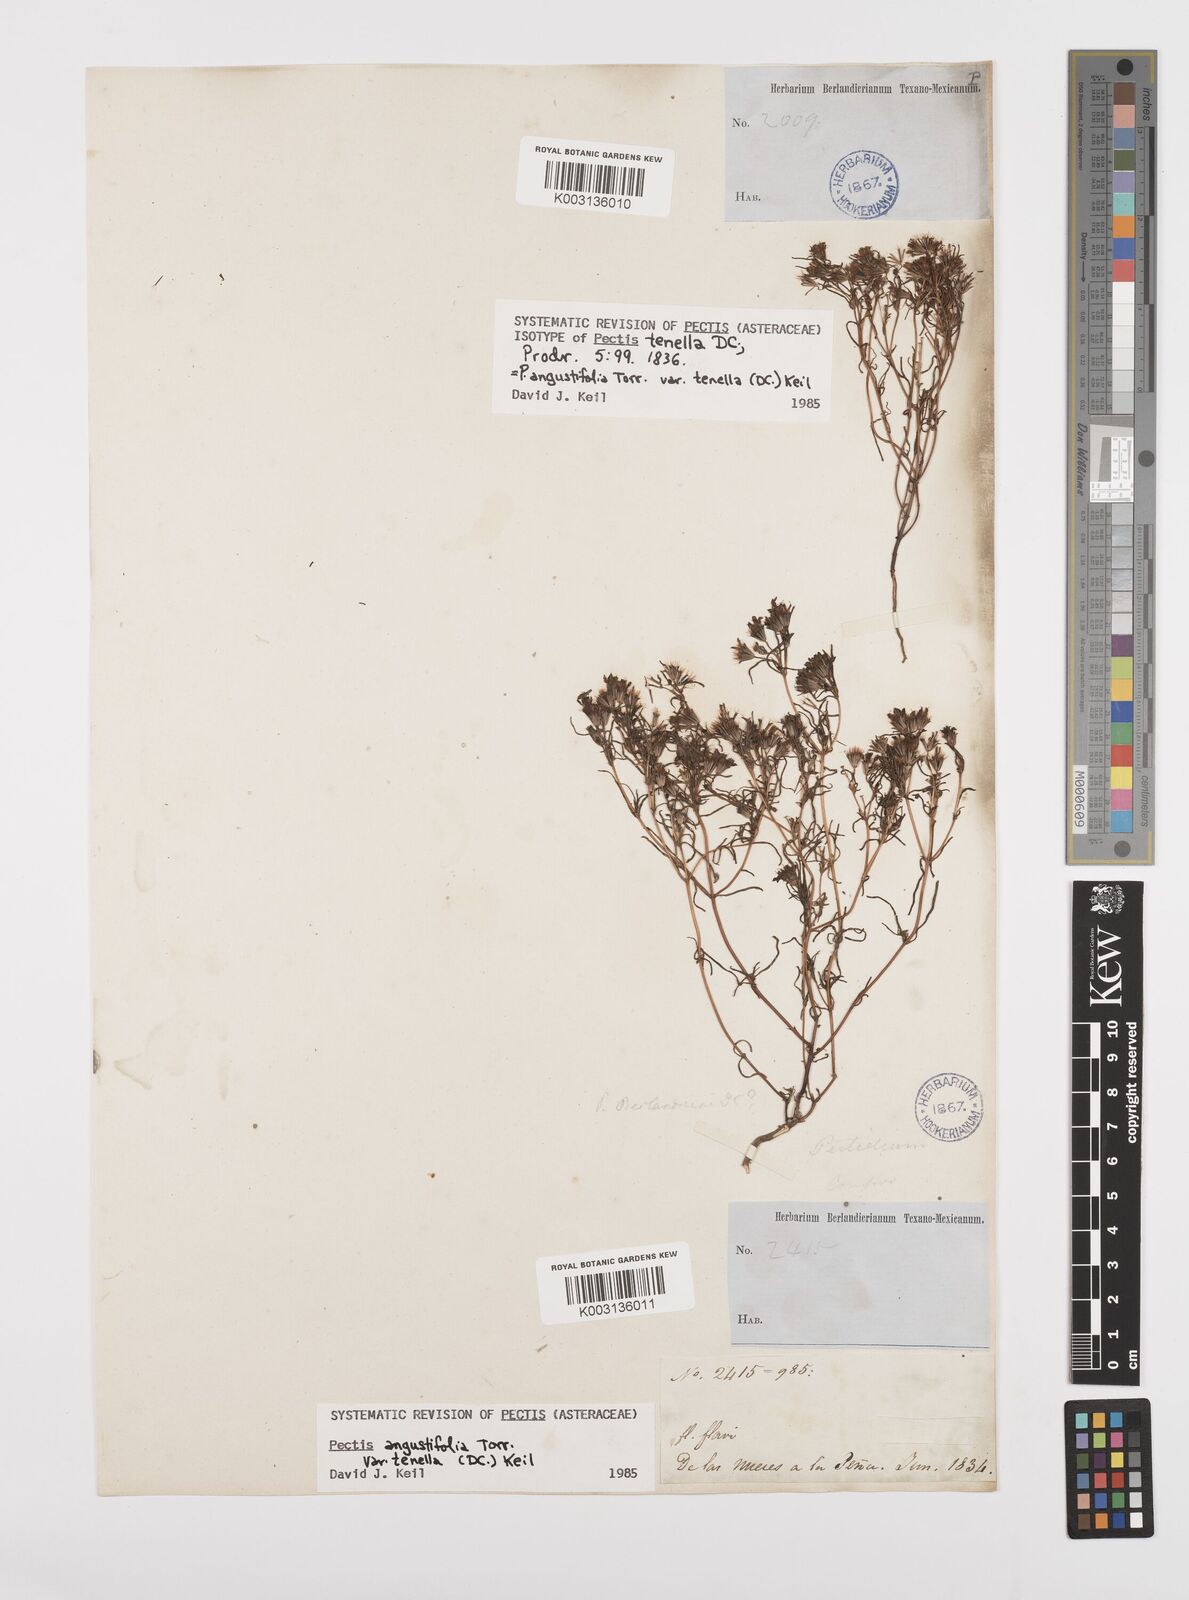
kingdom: Plantae
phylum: Tracheophyta
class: Magnoliopsida
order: Asterales
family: Asteraceae
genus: Pectis
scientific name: Pectis angustifolia
